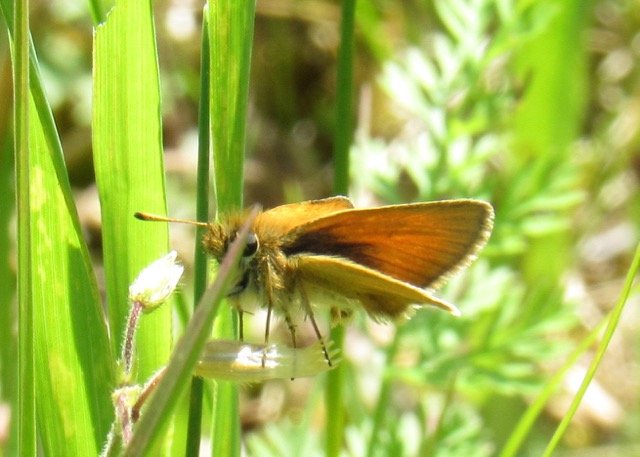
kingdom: Animalia
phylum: Arthropoda
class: Insecta
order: Lepidoptera
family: Hesperiidae
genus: Thymelicus
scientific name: Thymelicus lineola
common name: European Skipper
